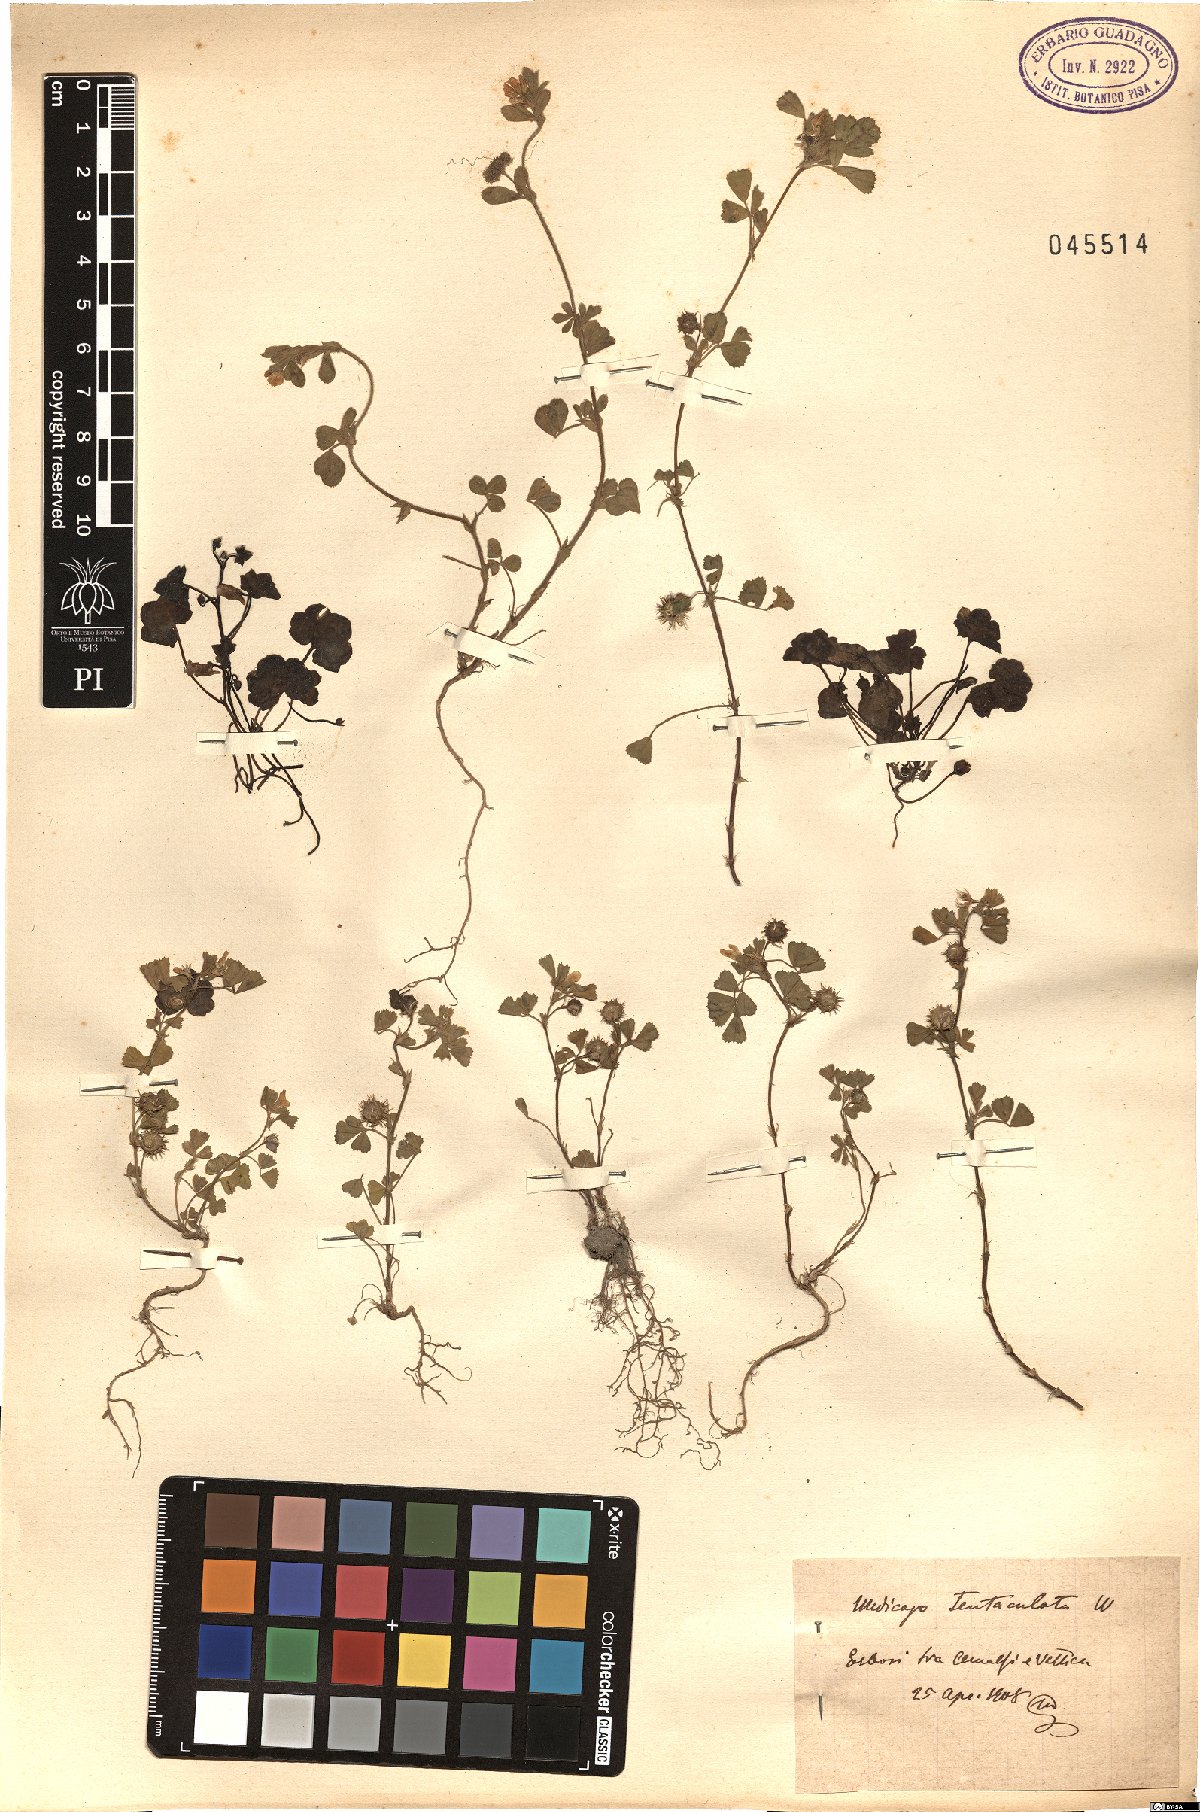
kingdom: Plantae
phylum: Tracheophyta
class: Magnoliopsida
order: Fabales
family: Fabaceae
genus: Medicago
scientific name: Medicago truncatula
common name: Strong-spined medick
